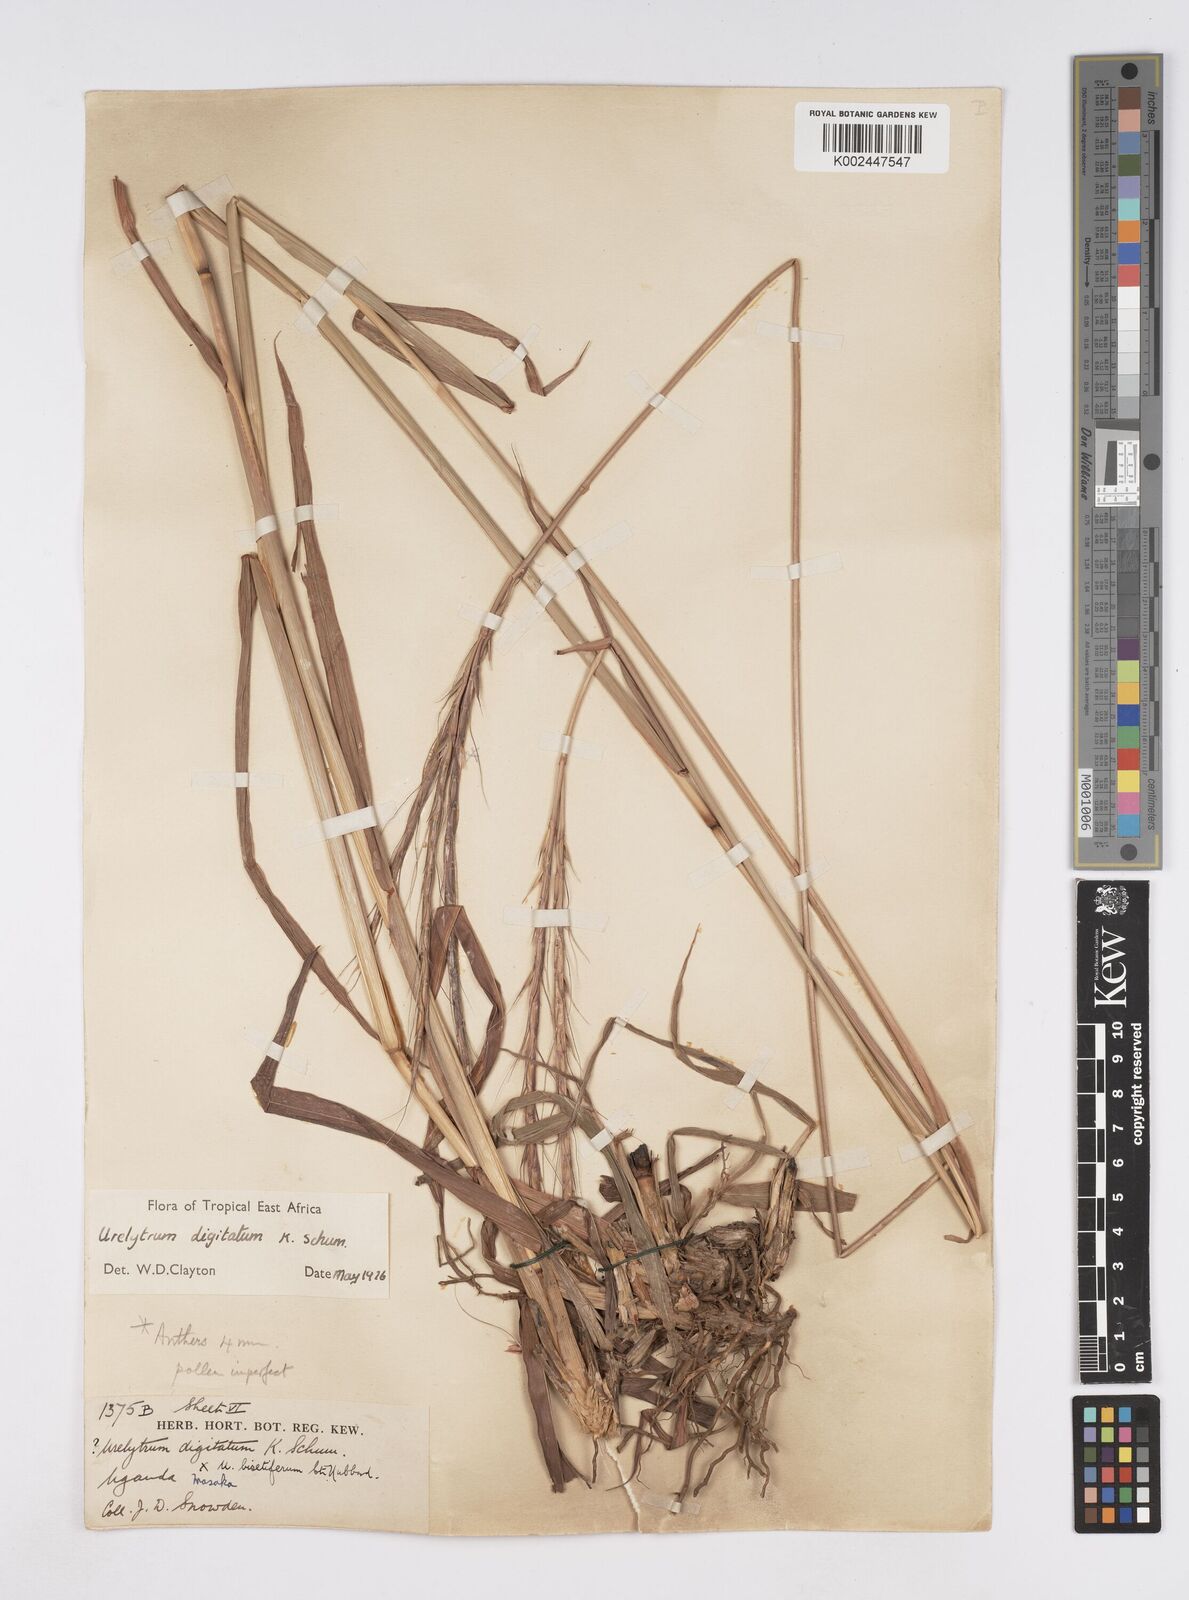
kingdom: Plantae
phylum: Tracheophyta
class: Liliopsida
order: Poales
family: Poaceae
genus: Urelytrum
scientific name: Urelytrum digitatum
